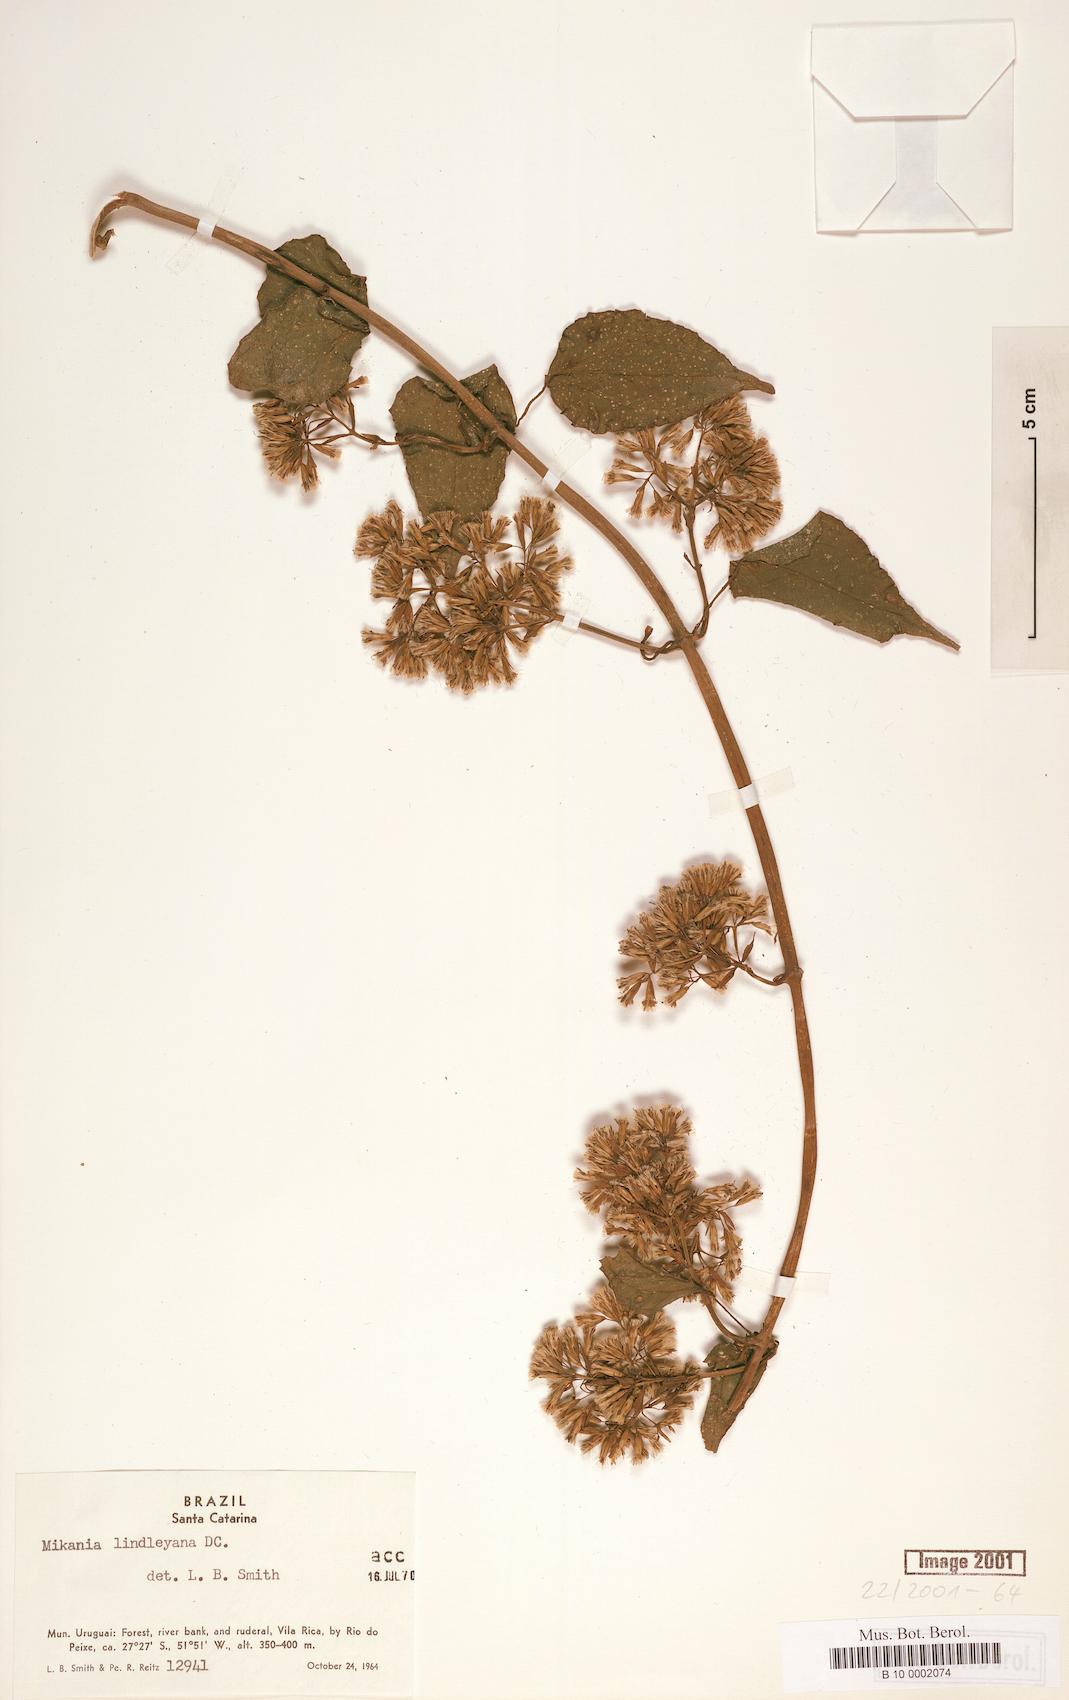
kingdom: Plantae
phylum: Tracheophyta
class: Magnoliopsida
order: Asterales
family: Asteraceae
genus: Mikania
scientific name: Mikania lindleyana
